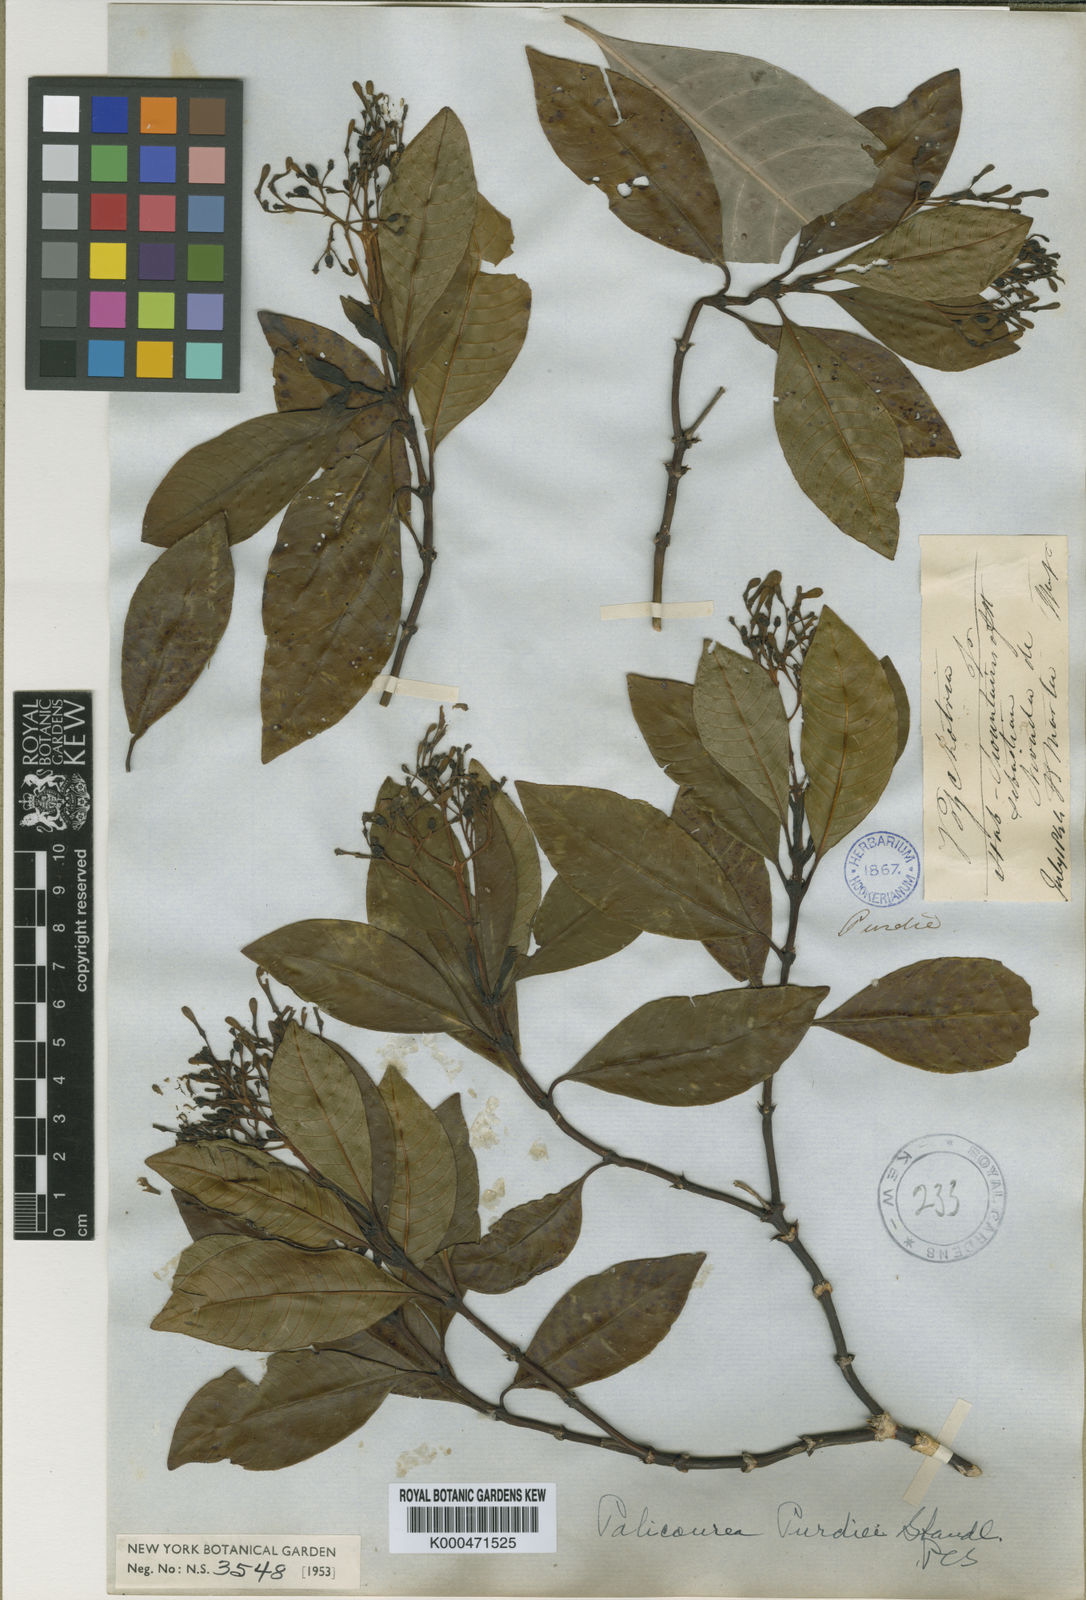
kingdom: Plantae
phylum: Tracheophyta
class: Magnoliopsida
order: Gentianales
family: Rubiaceae
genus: Palicourea
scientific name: Palicourea purdiei
